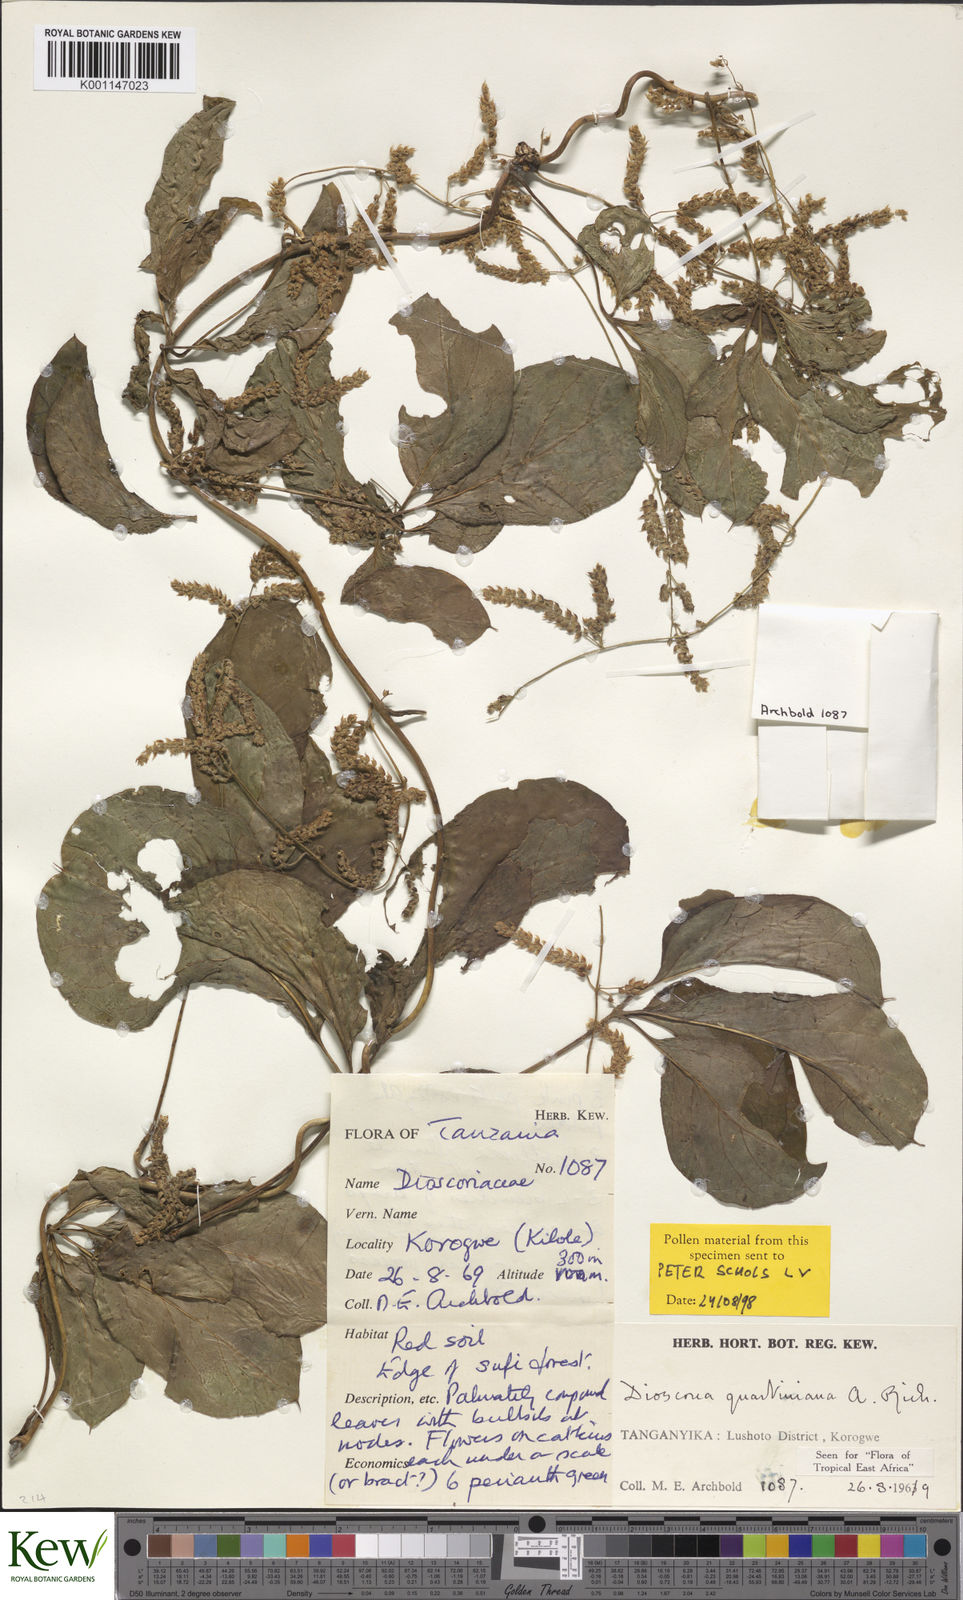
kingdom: Plantae
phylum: Tracheophyta
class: Liliopsida
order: Dioscoreales
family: Dioscoreaceae
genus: Dioscorea
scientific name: Dioscorea quartiniana
